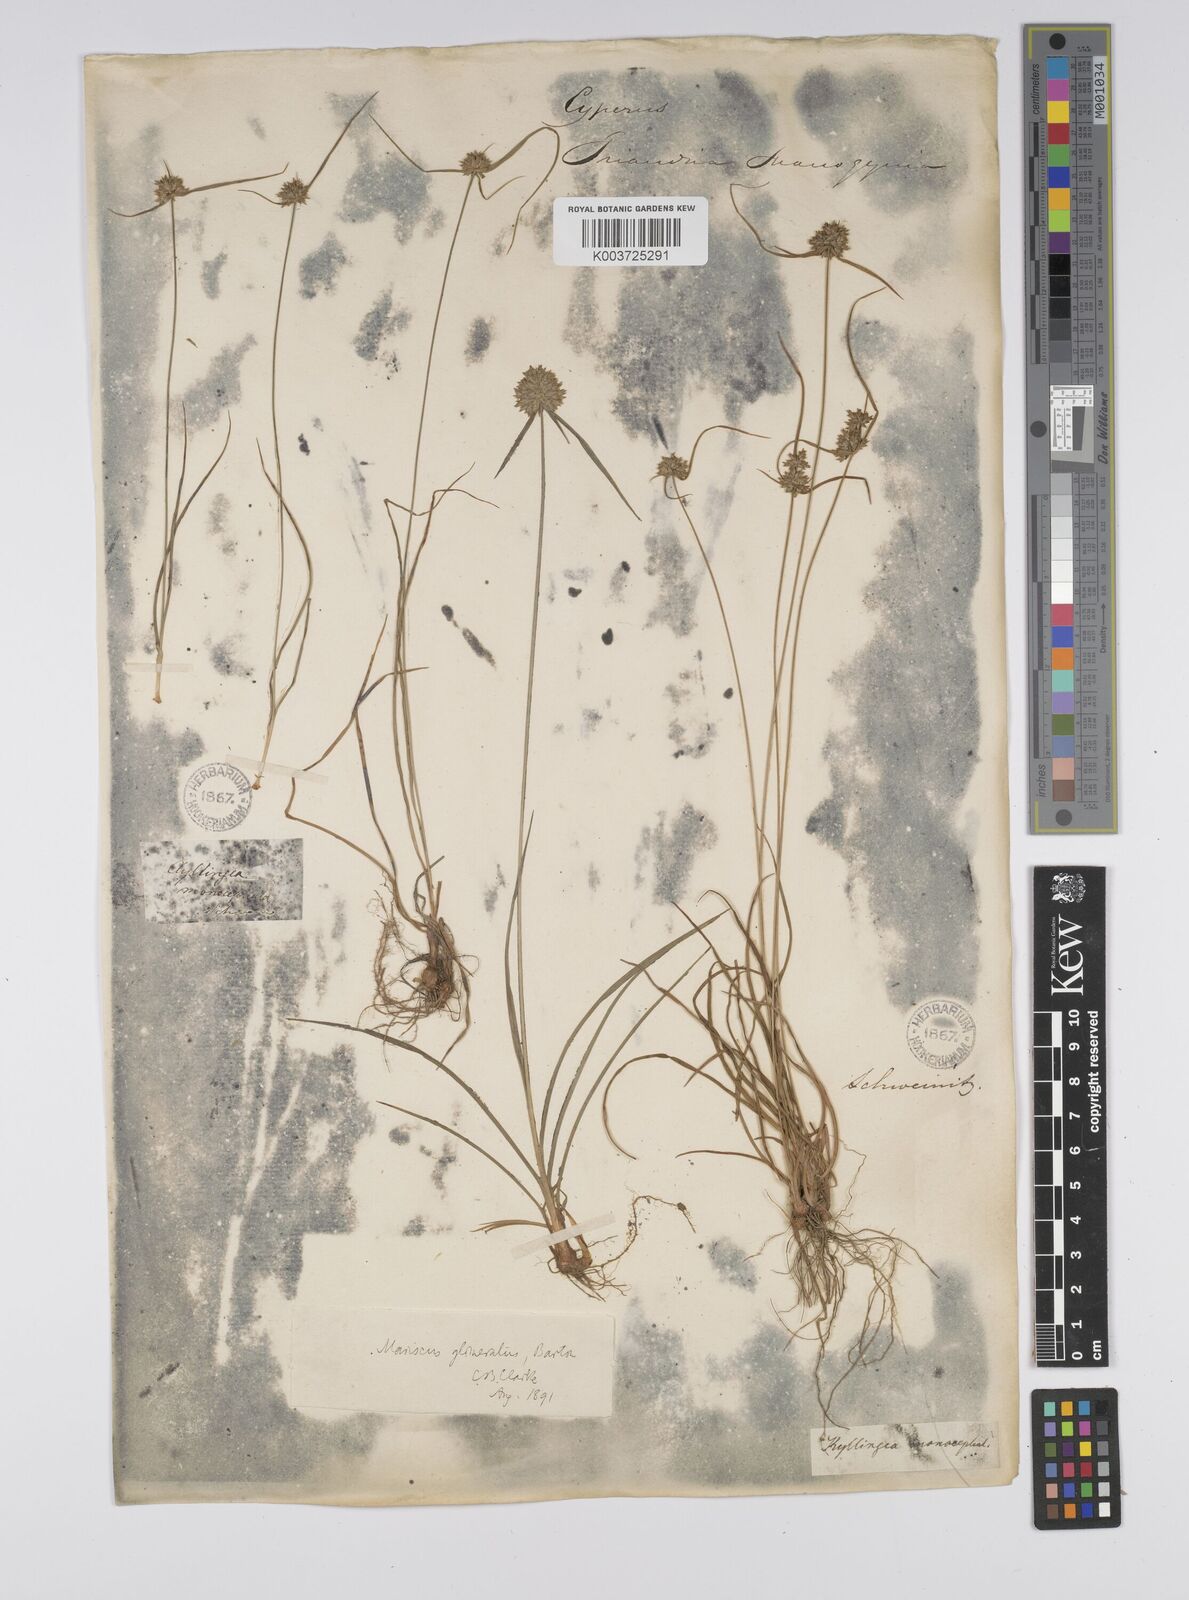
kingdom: Plantae
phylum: Tracheophyta
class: Liliopsida
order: Poales
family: Cyperaceae
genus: Cyperus
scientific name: Cyperus lupulinus
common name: Great plains flatsedge
